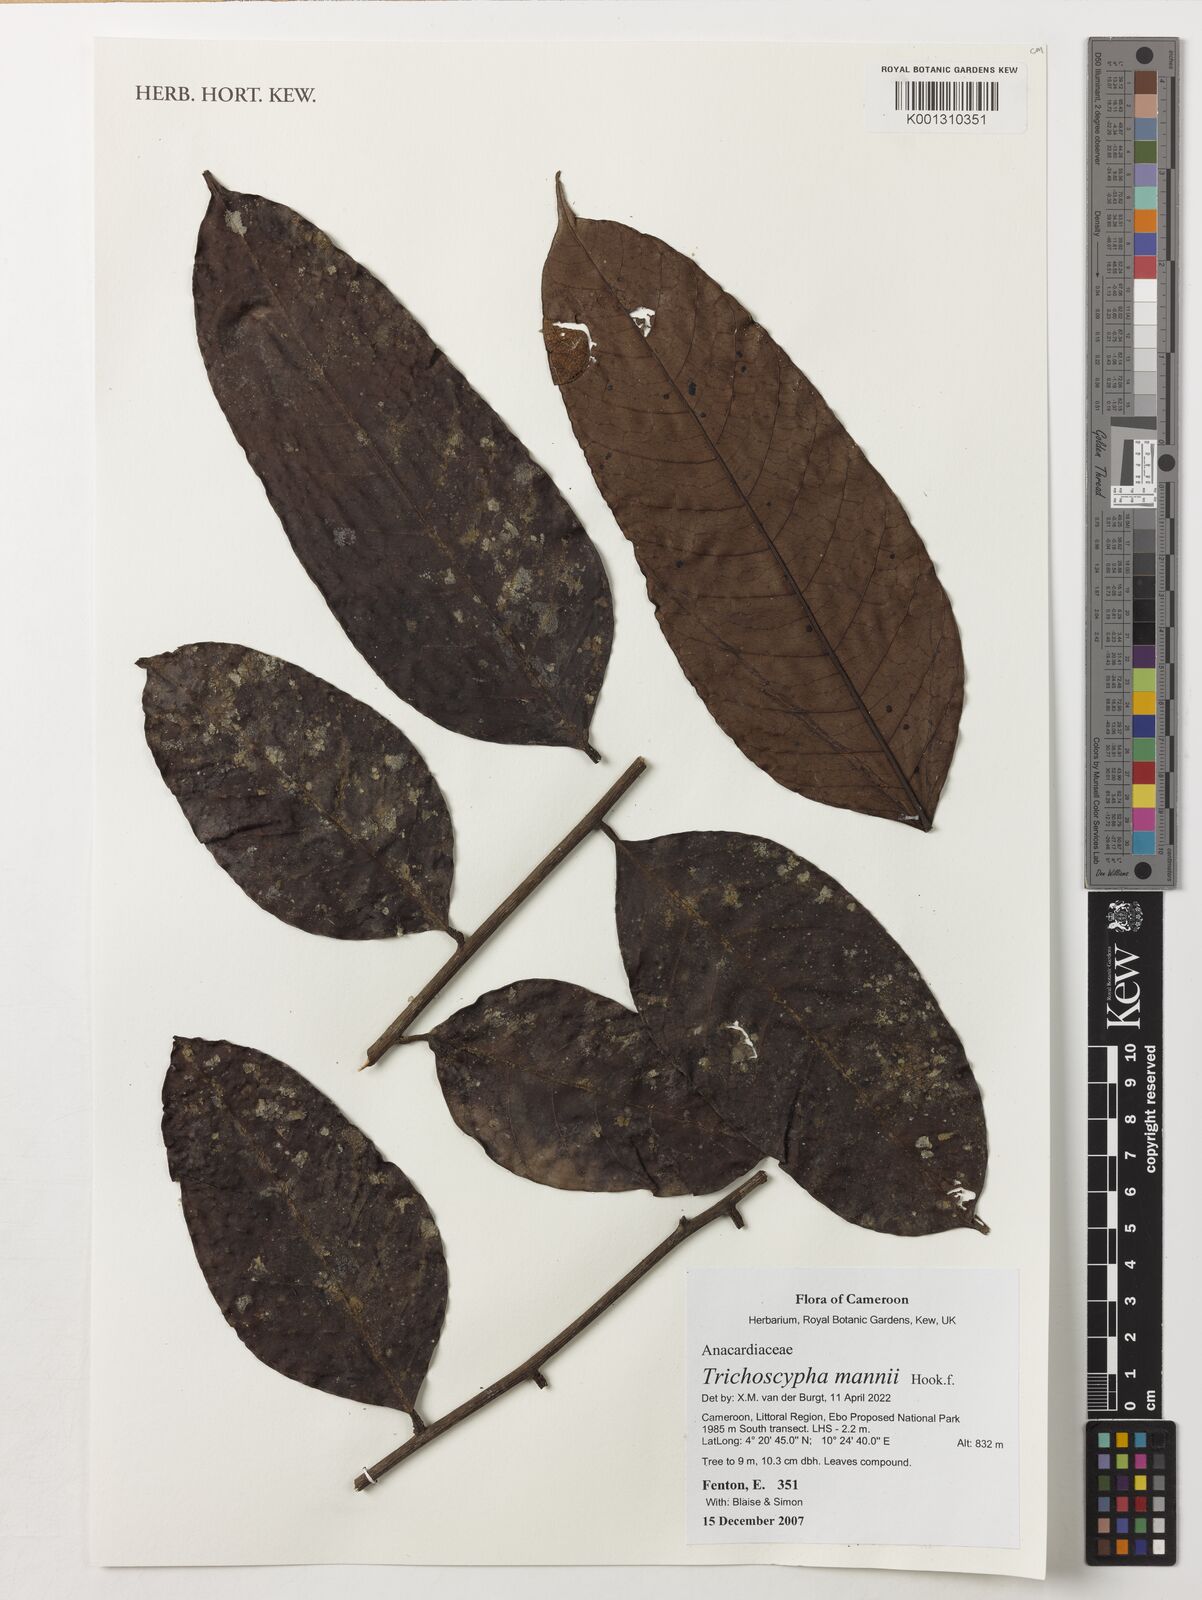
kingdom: Plantae
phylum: Tracheophyta
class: Magnoliopsida
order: Sapindales
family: Anacardiaceae
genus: Trichoscypha
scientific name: Trichoscypha mannii
